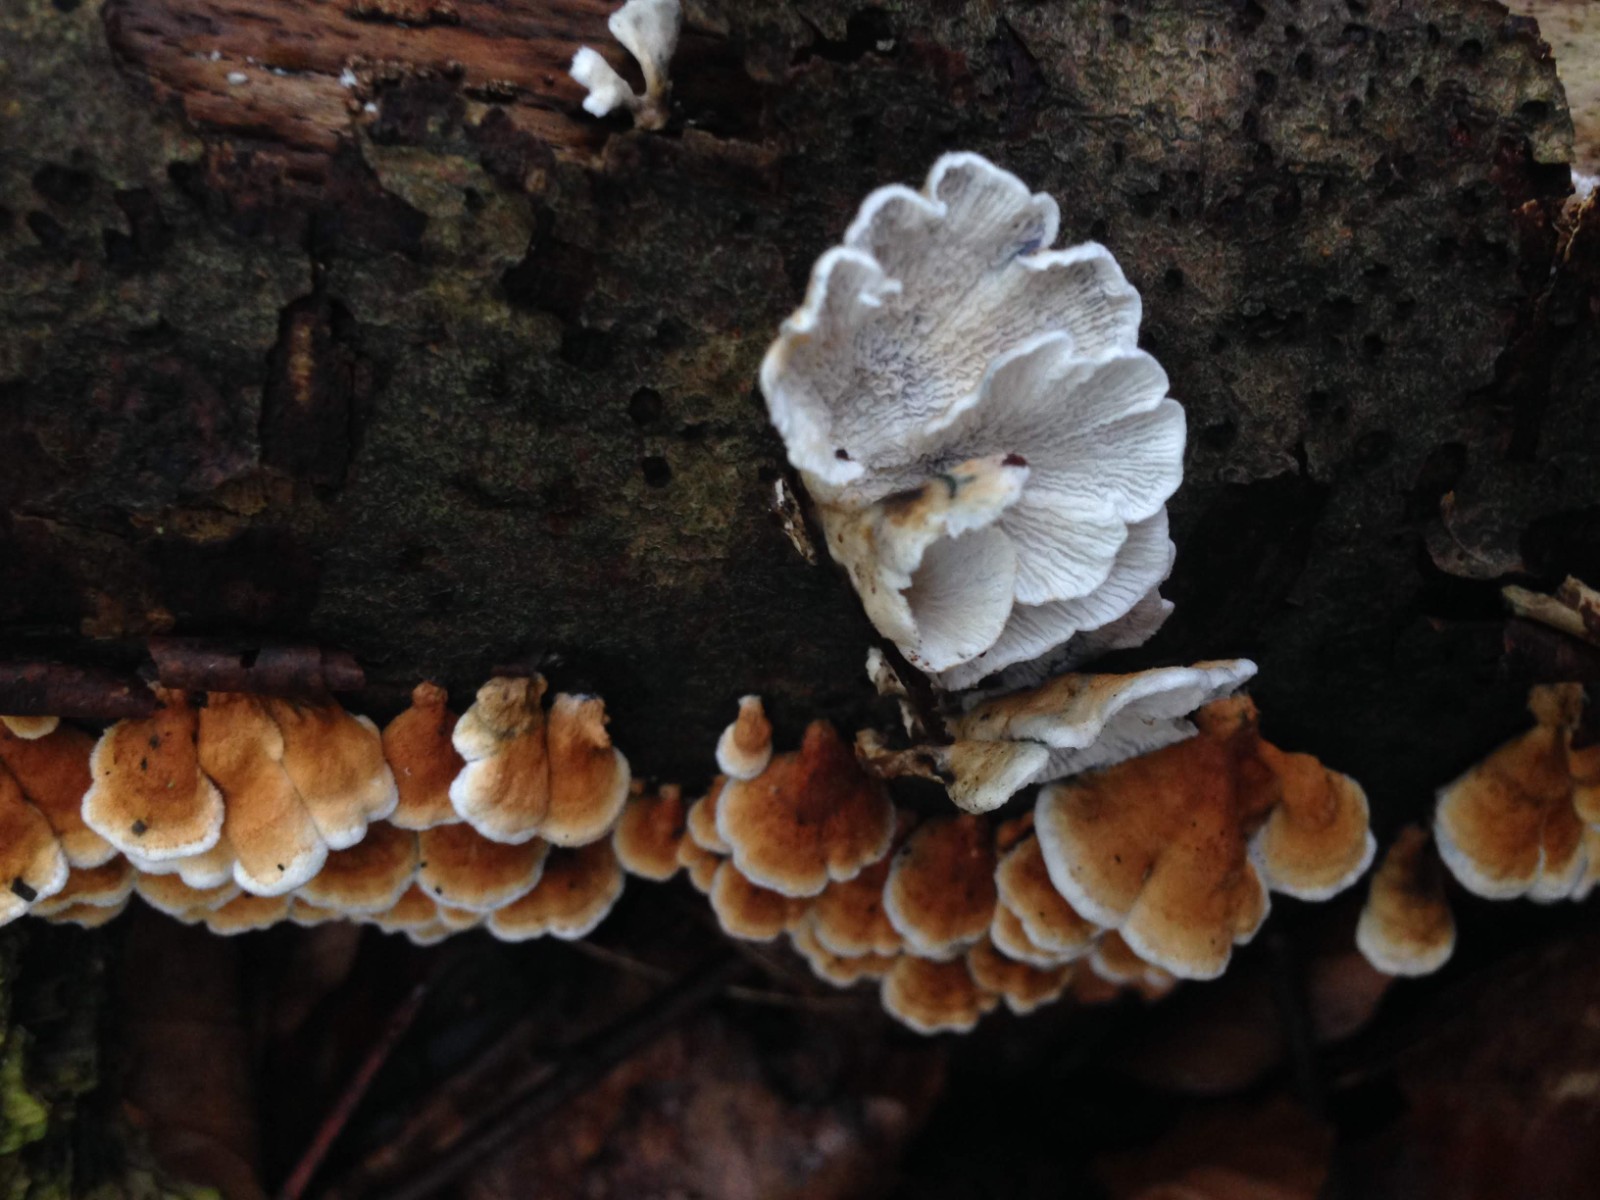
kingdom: Fungi
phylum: Basidiomycota
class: Agaricomycetes
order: Amylocorticiales
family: Amylocorticiaceae
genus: Plicaturopsis
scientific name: Plicaturopsis crispa
